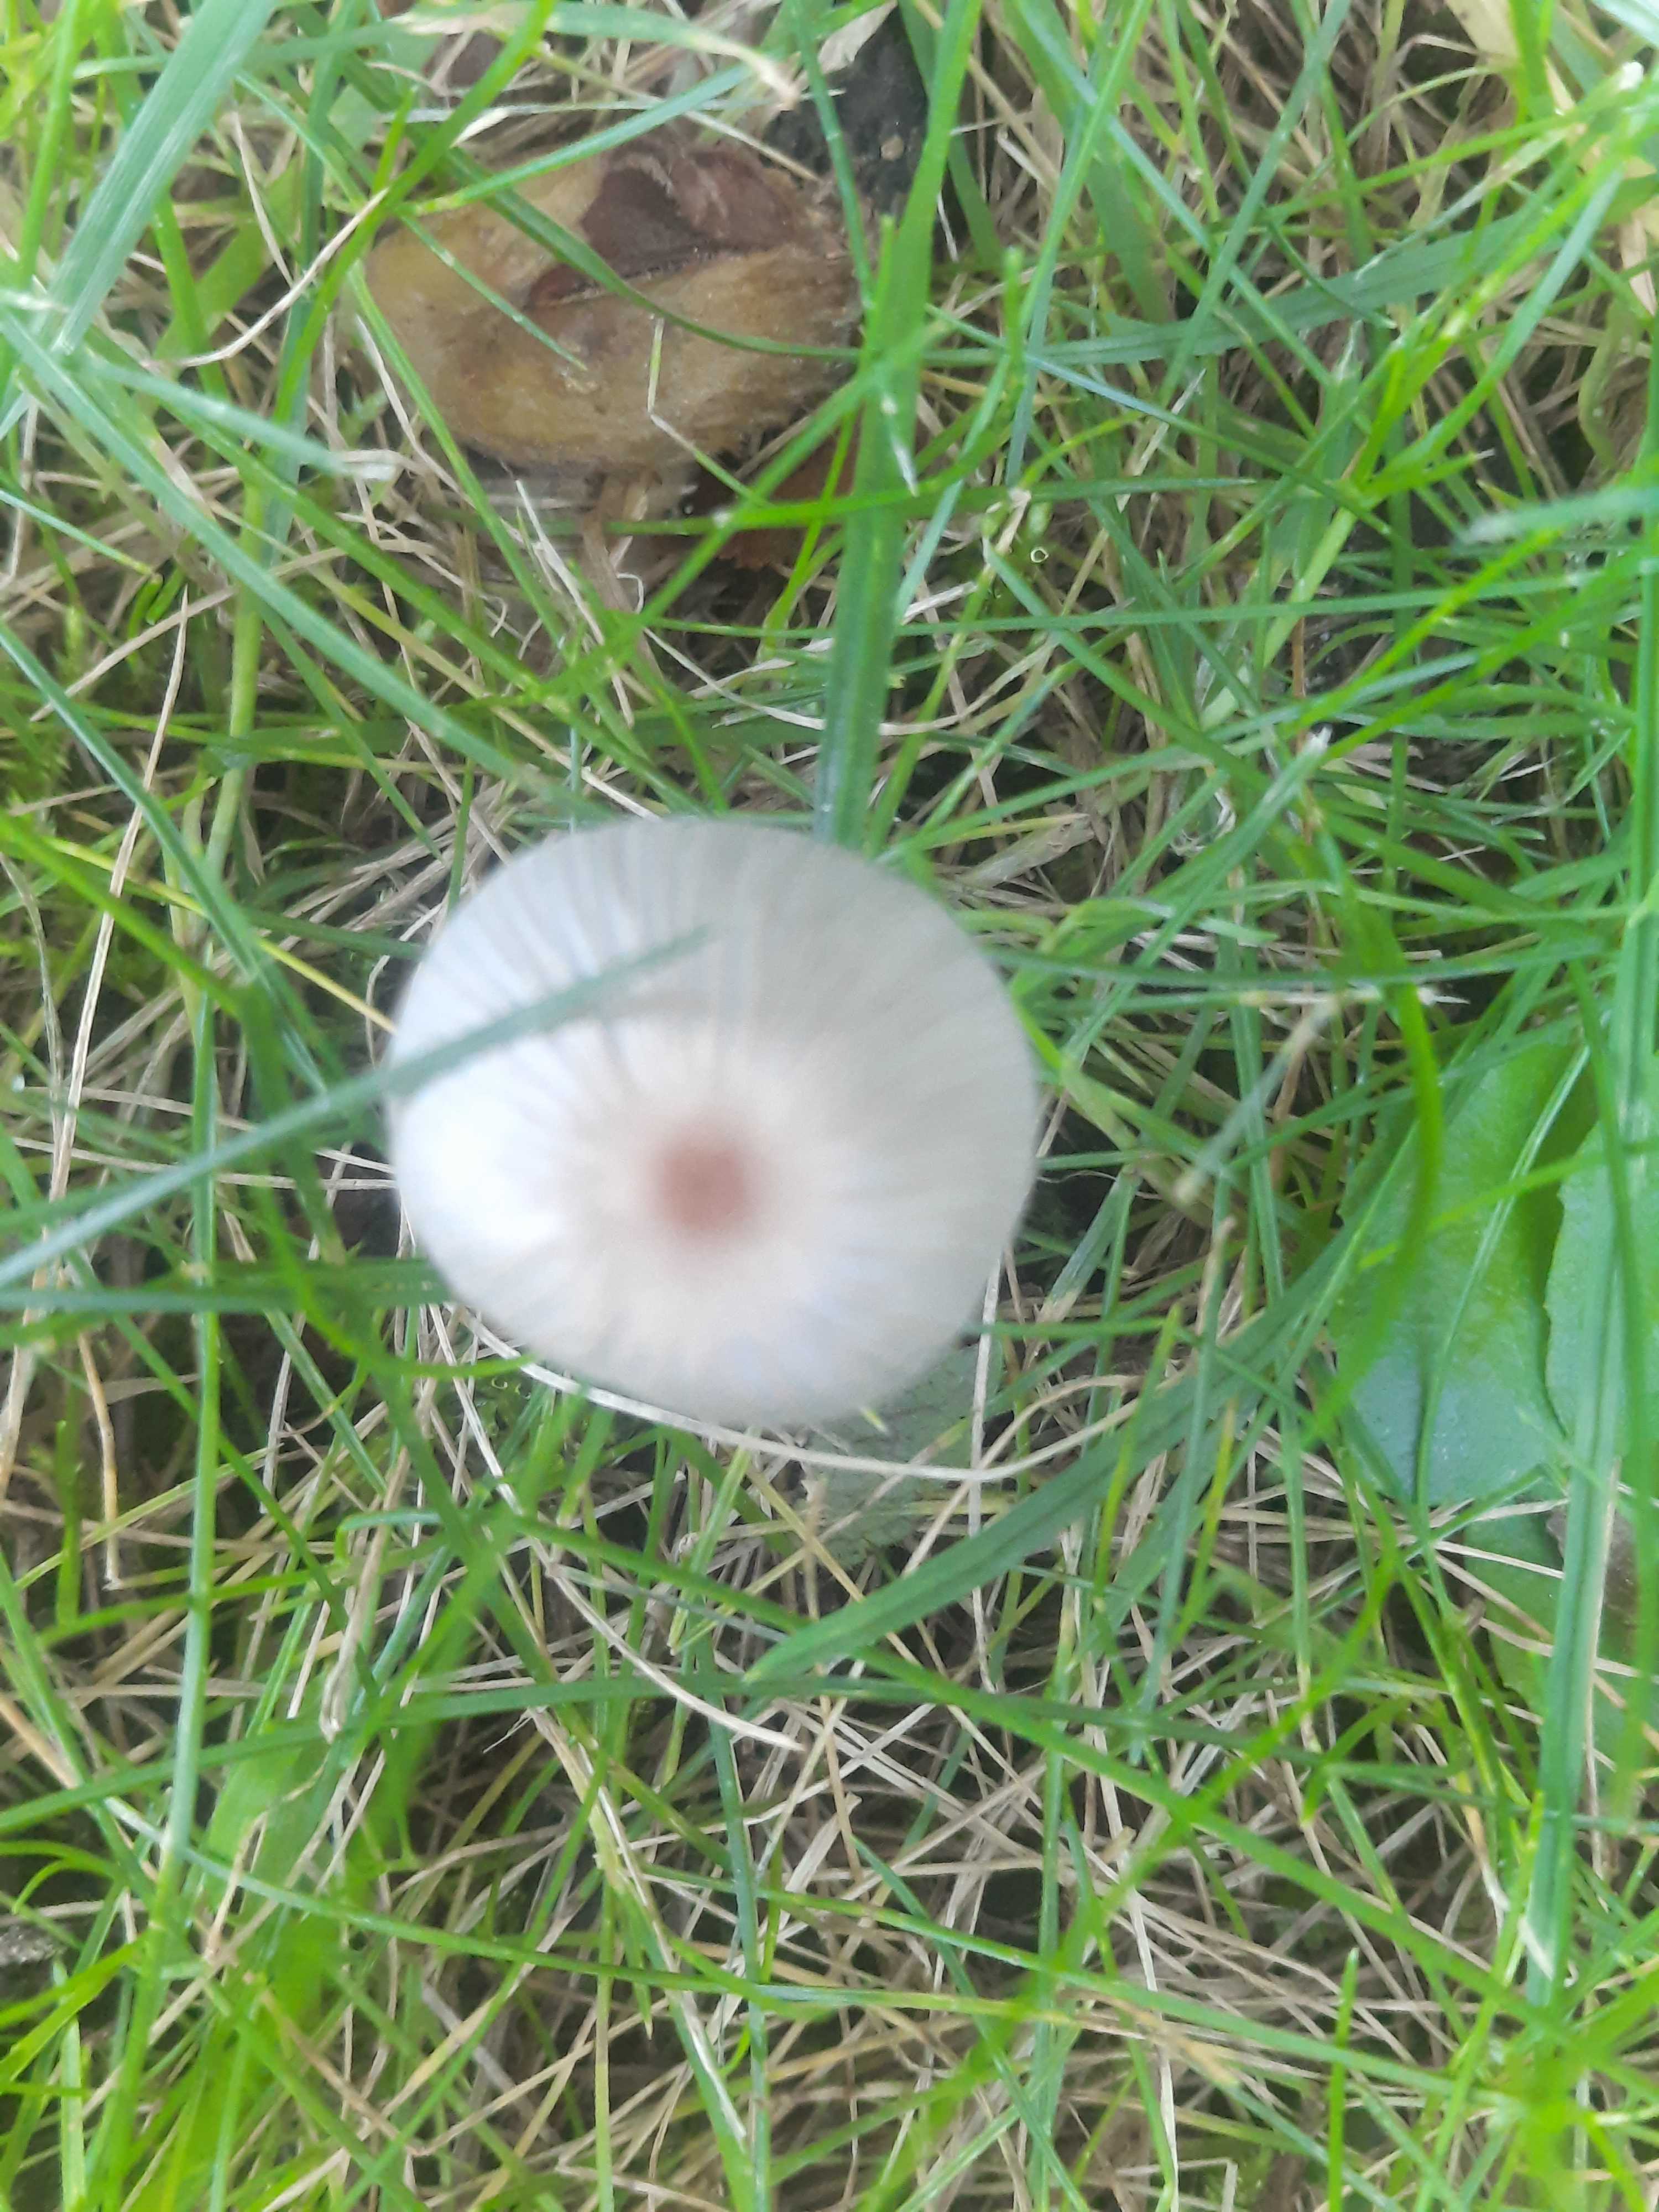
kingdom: Fungi
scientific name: Fungi
